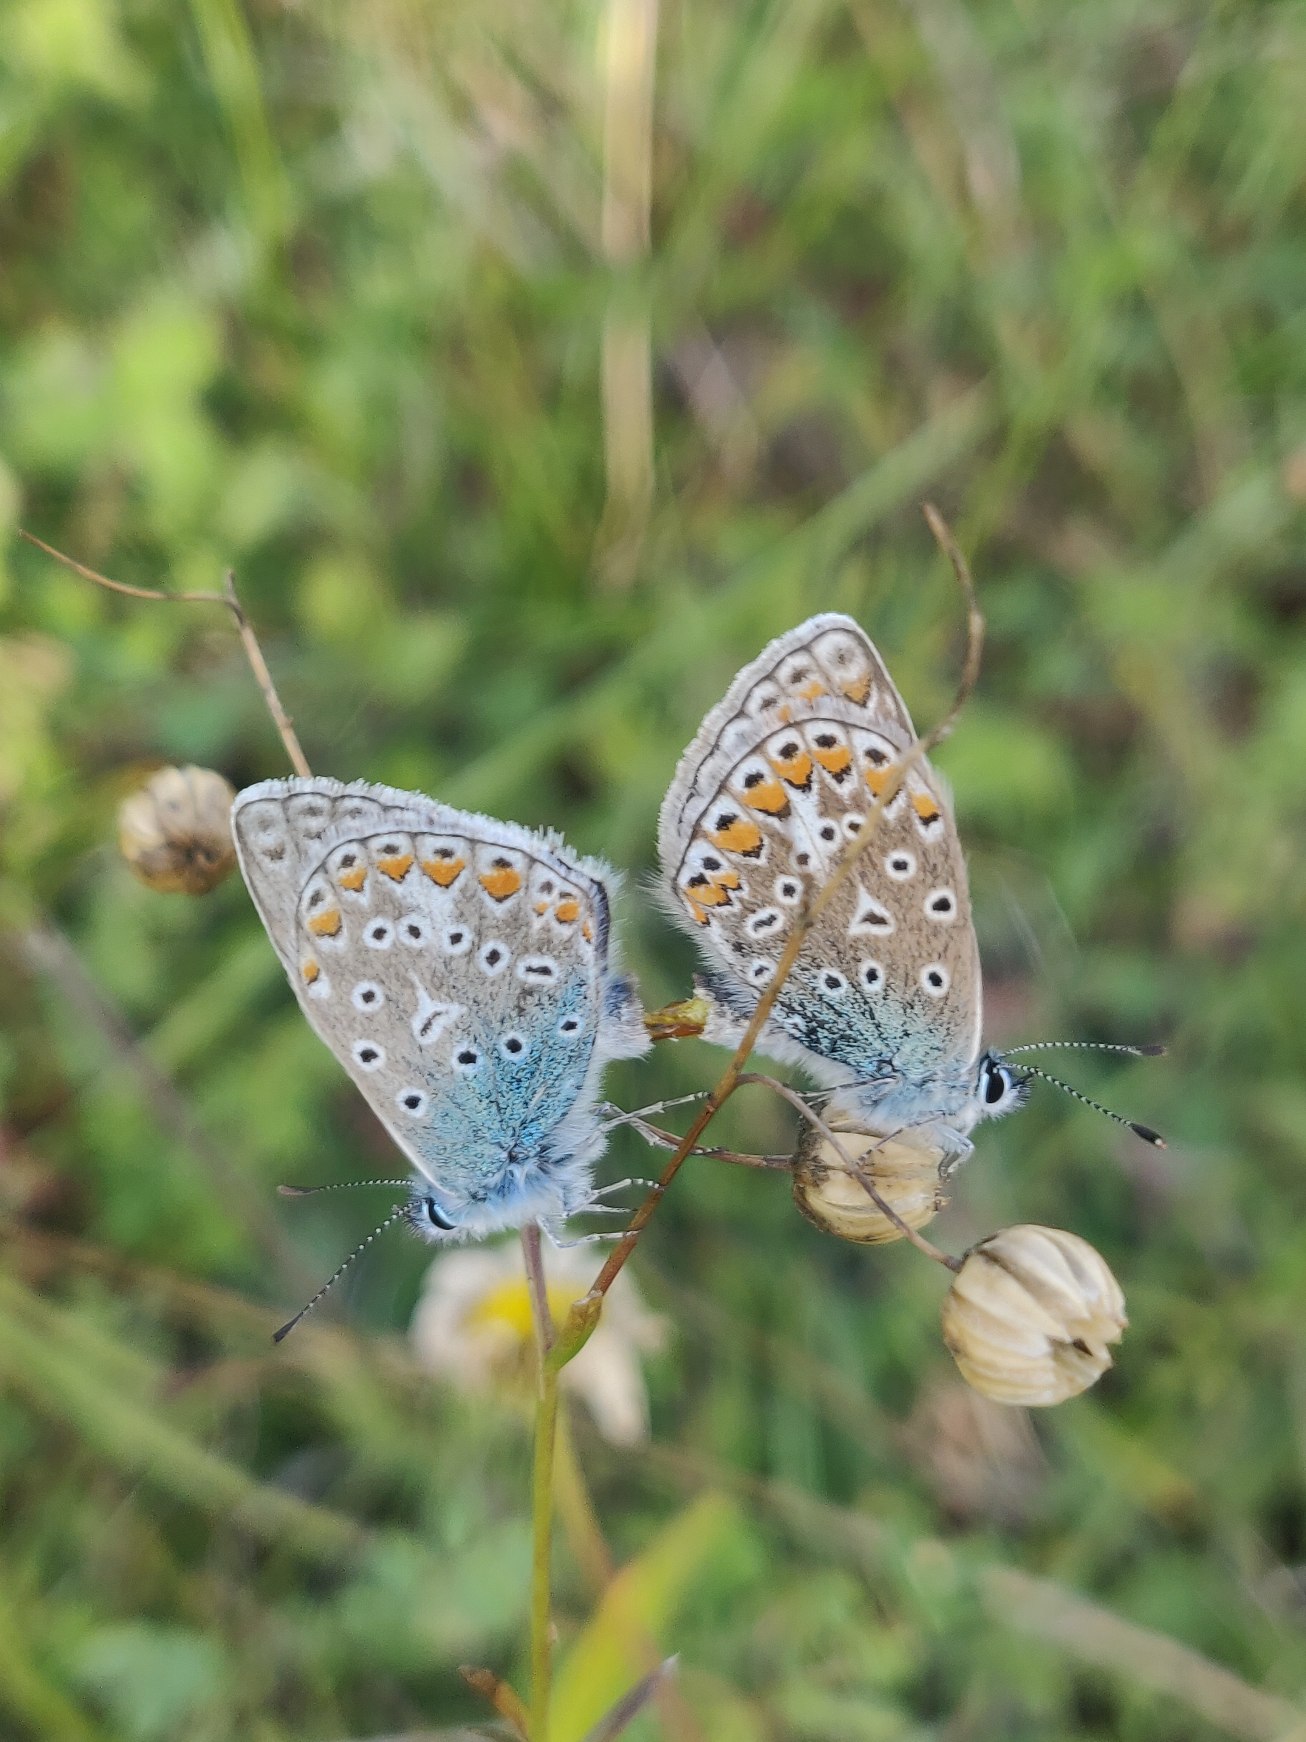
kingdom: Animalia
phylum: Arthropoda
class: Insecta
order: Lepidoptera
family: Lycaenidae
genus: Polyommatus
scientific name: Polyommatus icarus
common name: Almindelig blåfugl
